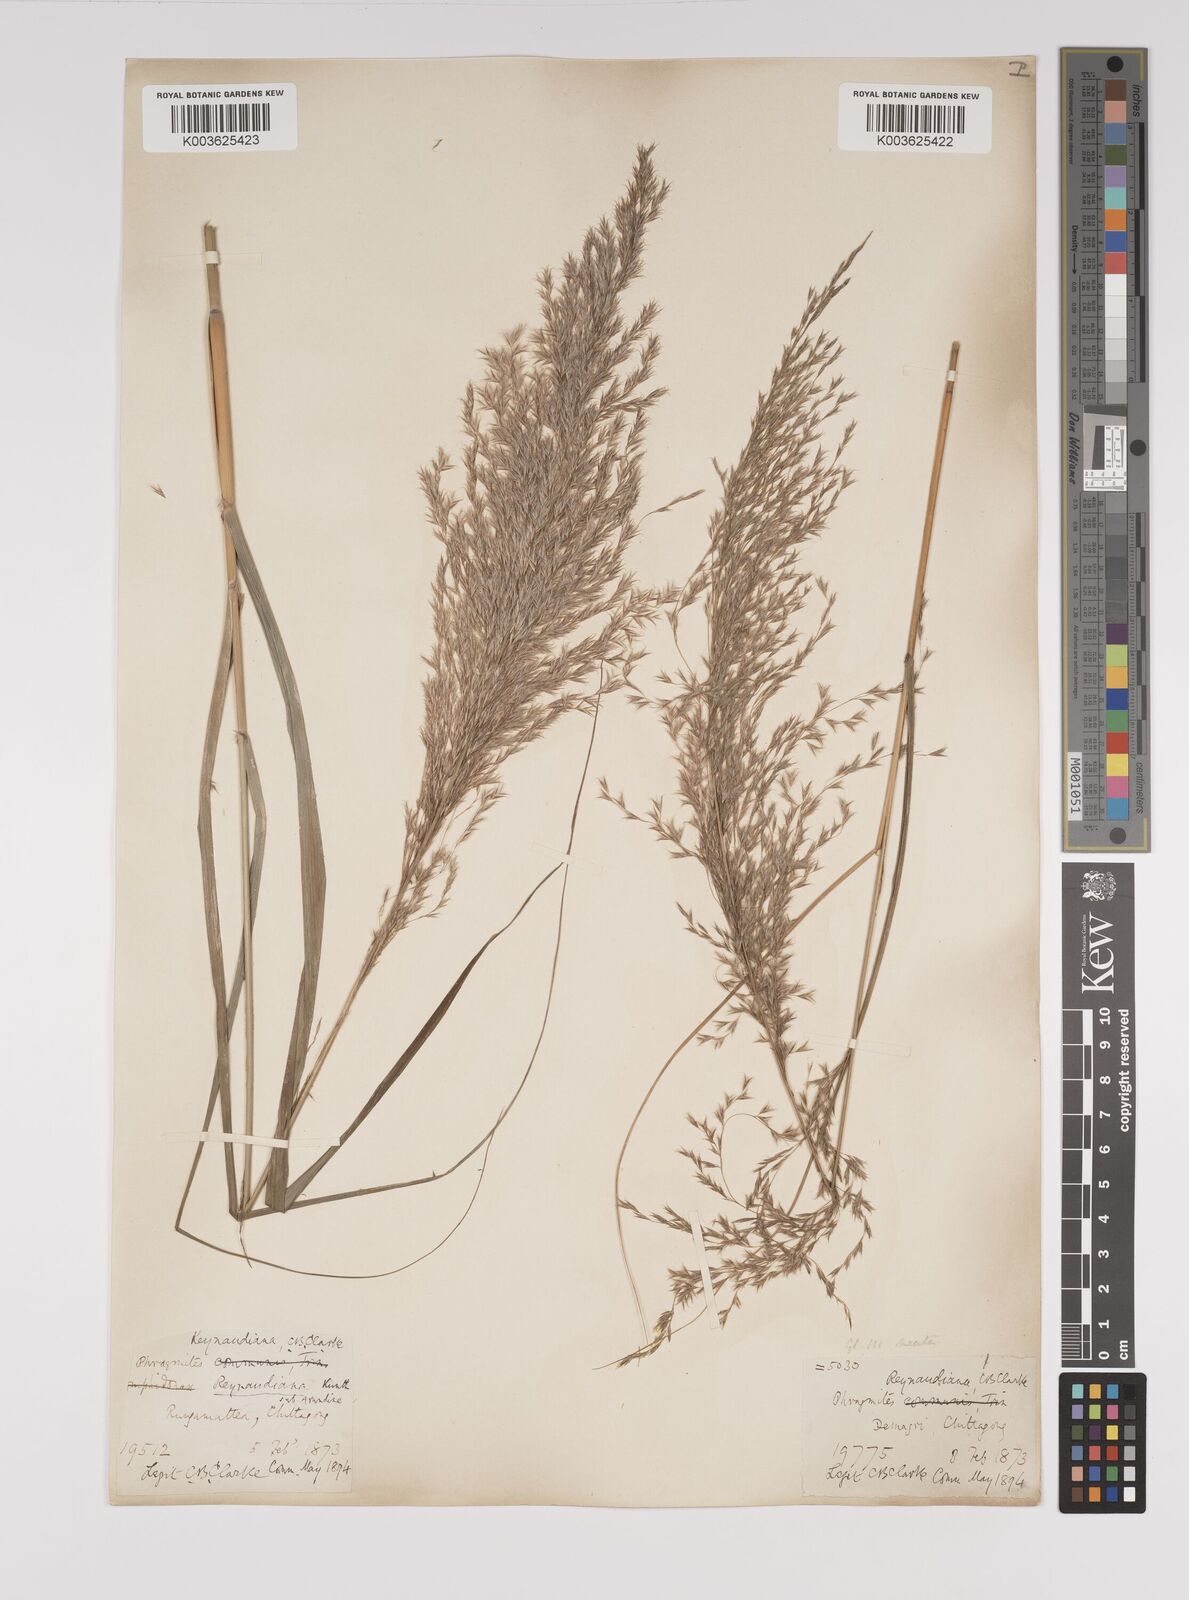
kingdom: Plantae
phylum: Tracheophyta
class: Liliopsida
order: Poales
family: Poaceae
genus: Neyraudia
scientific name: Neyraudia reynaudiana
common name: Silkreed
